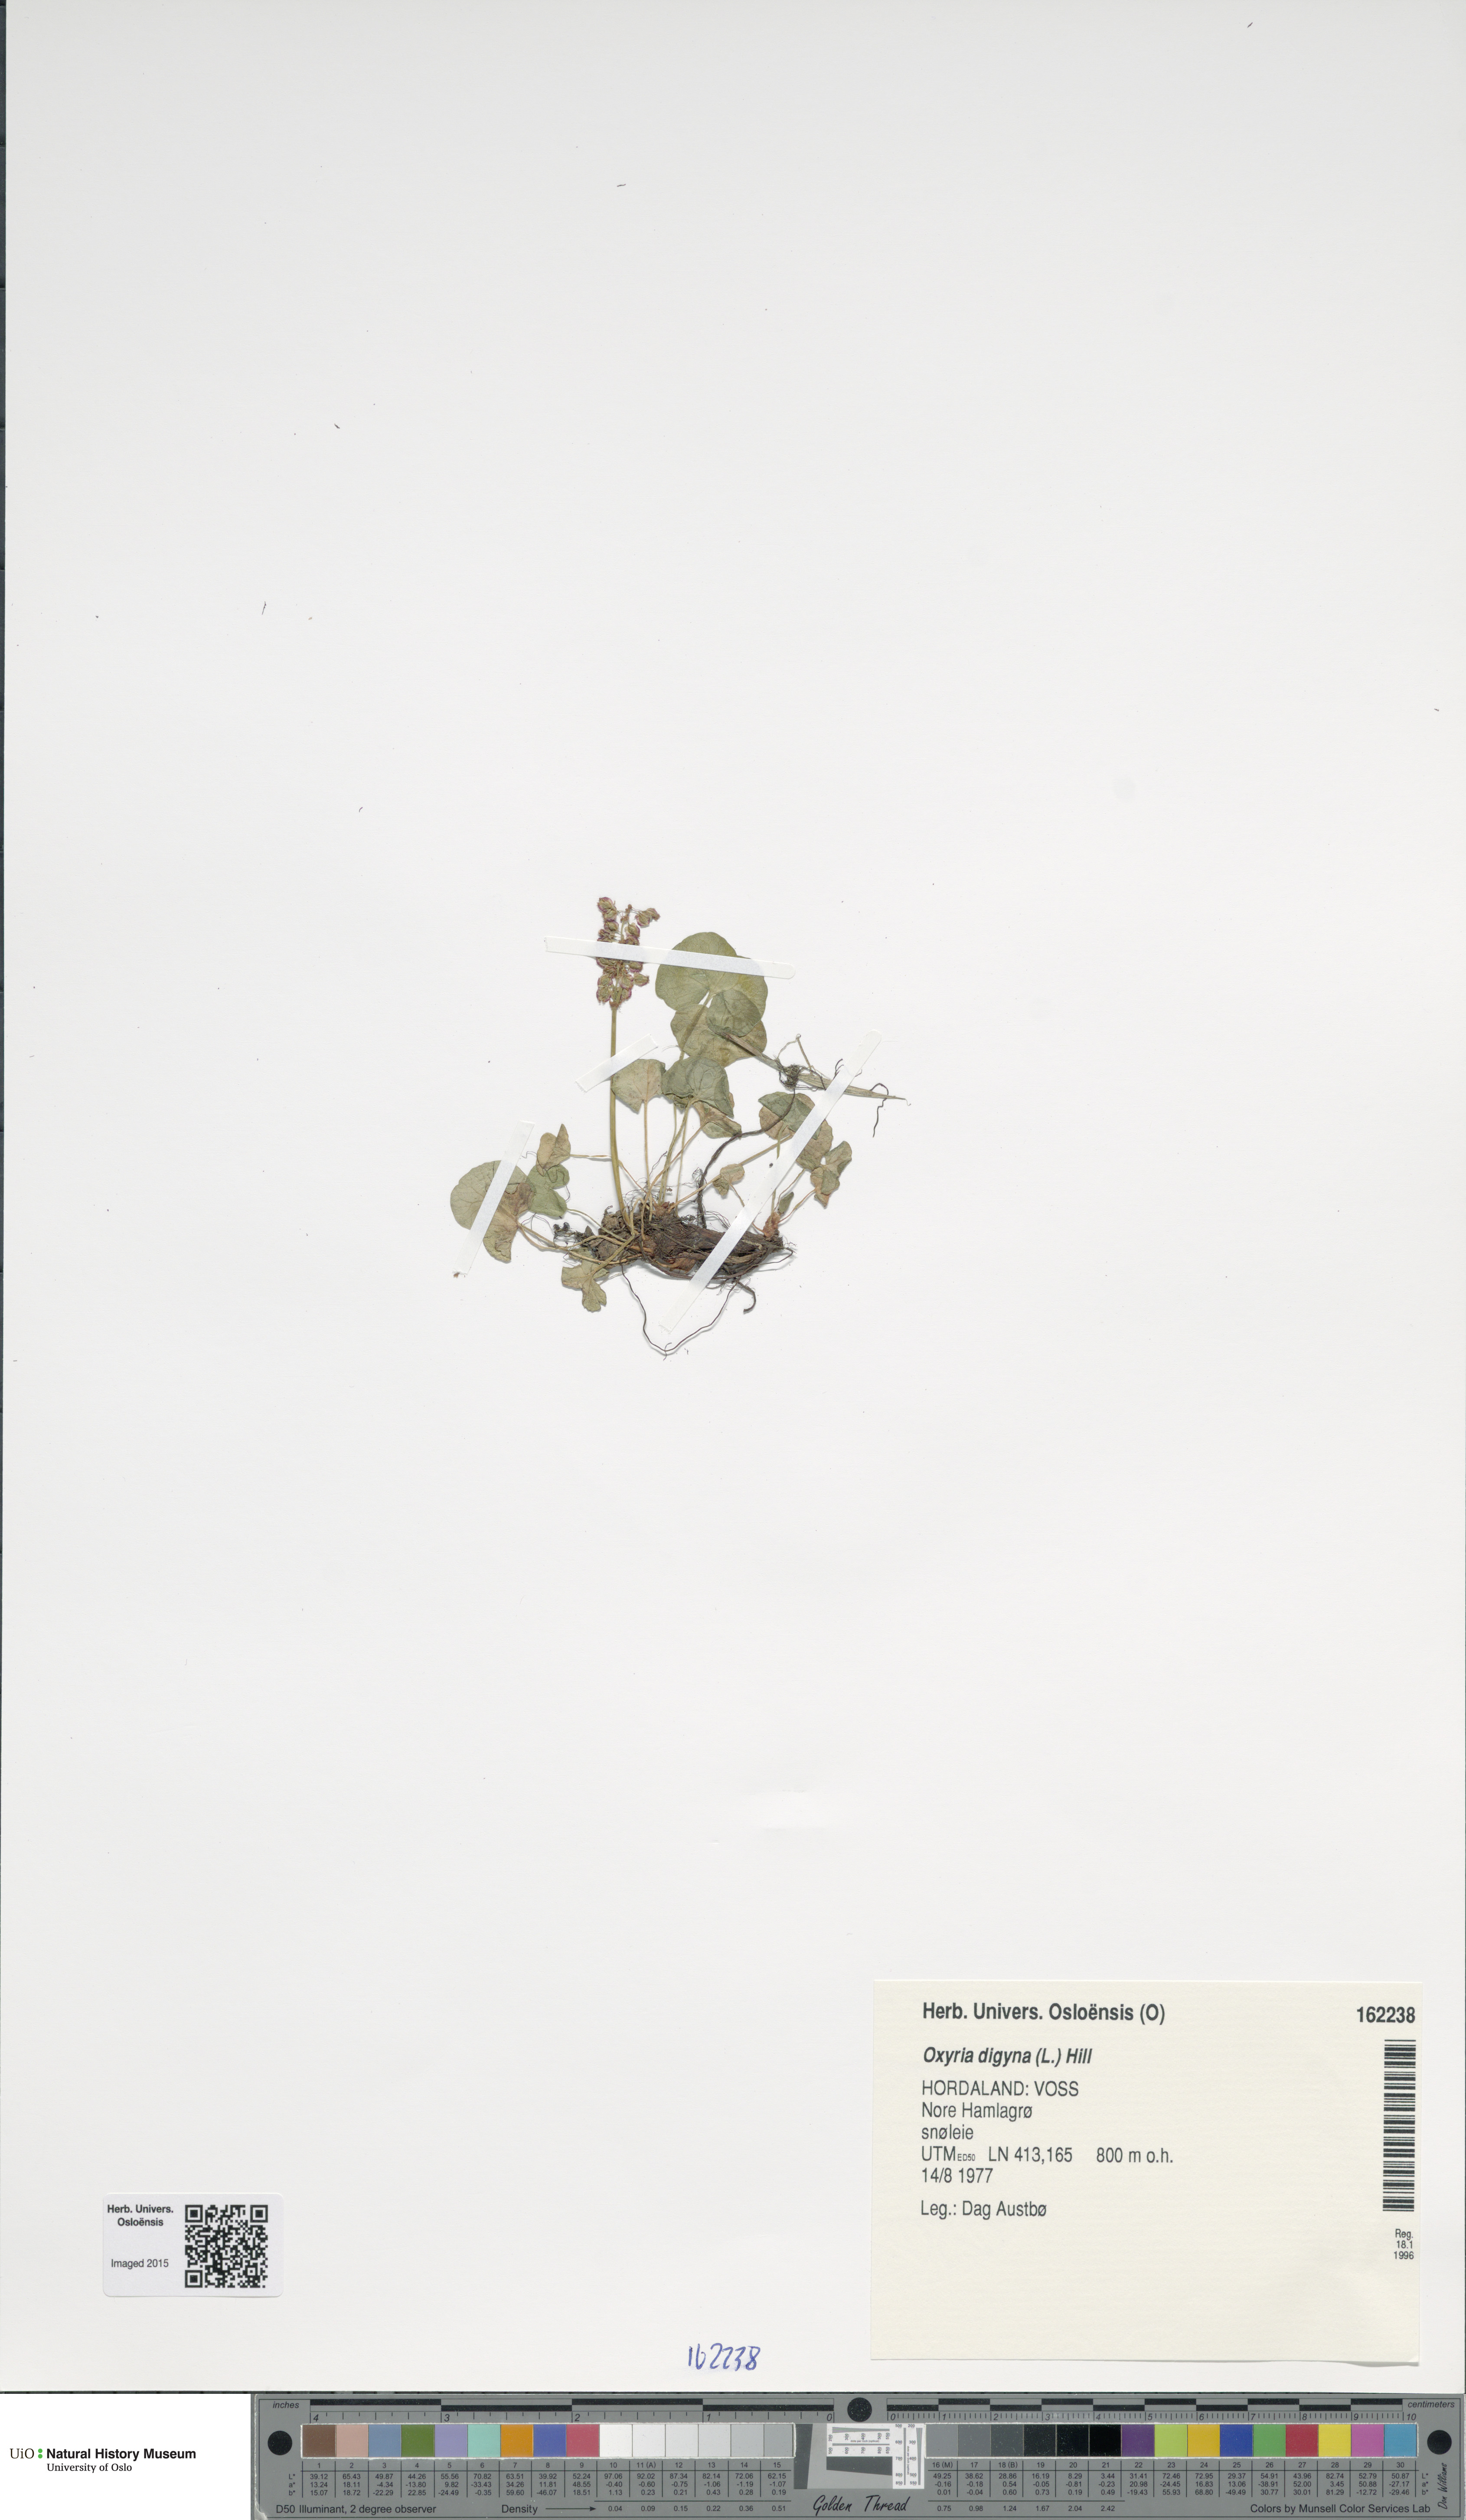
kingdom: Plantae
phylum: Tracheophyta
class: Magnoliopsida
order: Caryophyllales
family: Polygonaceae
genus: Oxyria
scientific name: Oxyria digyna
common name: Alpine mountain-sorrel
